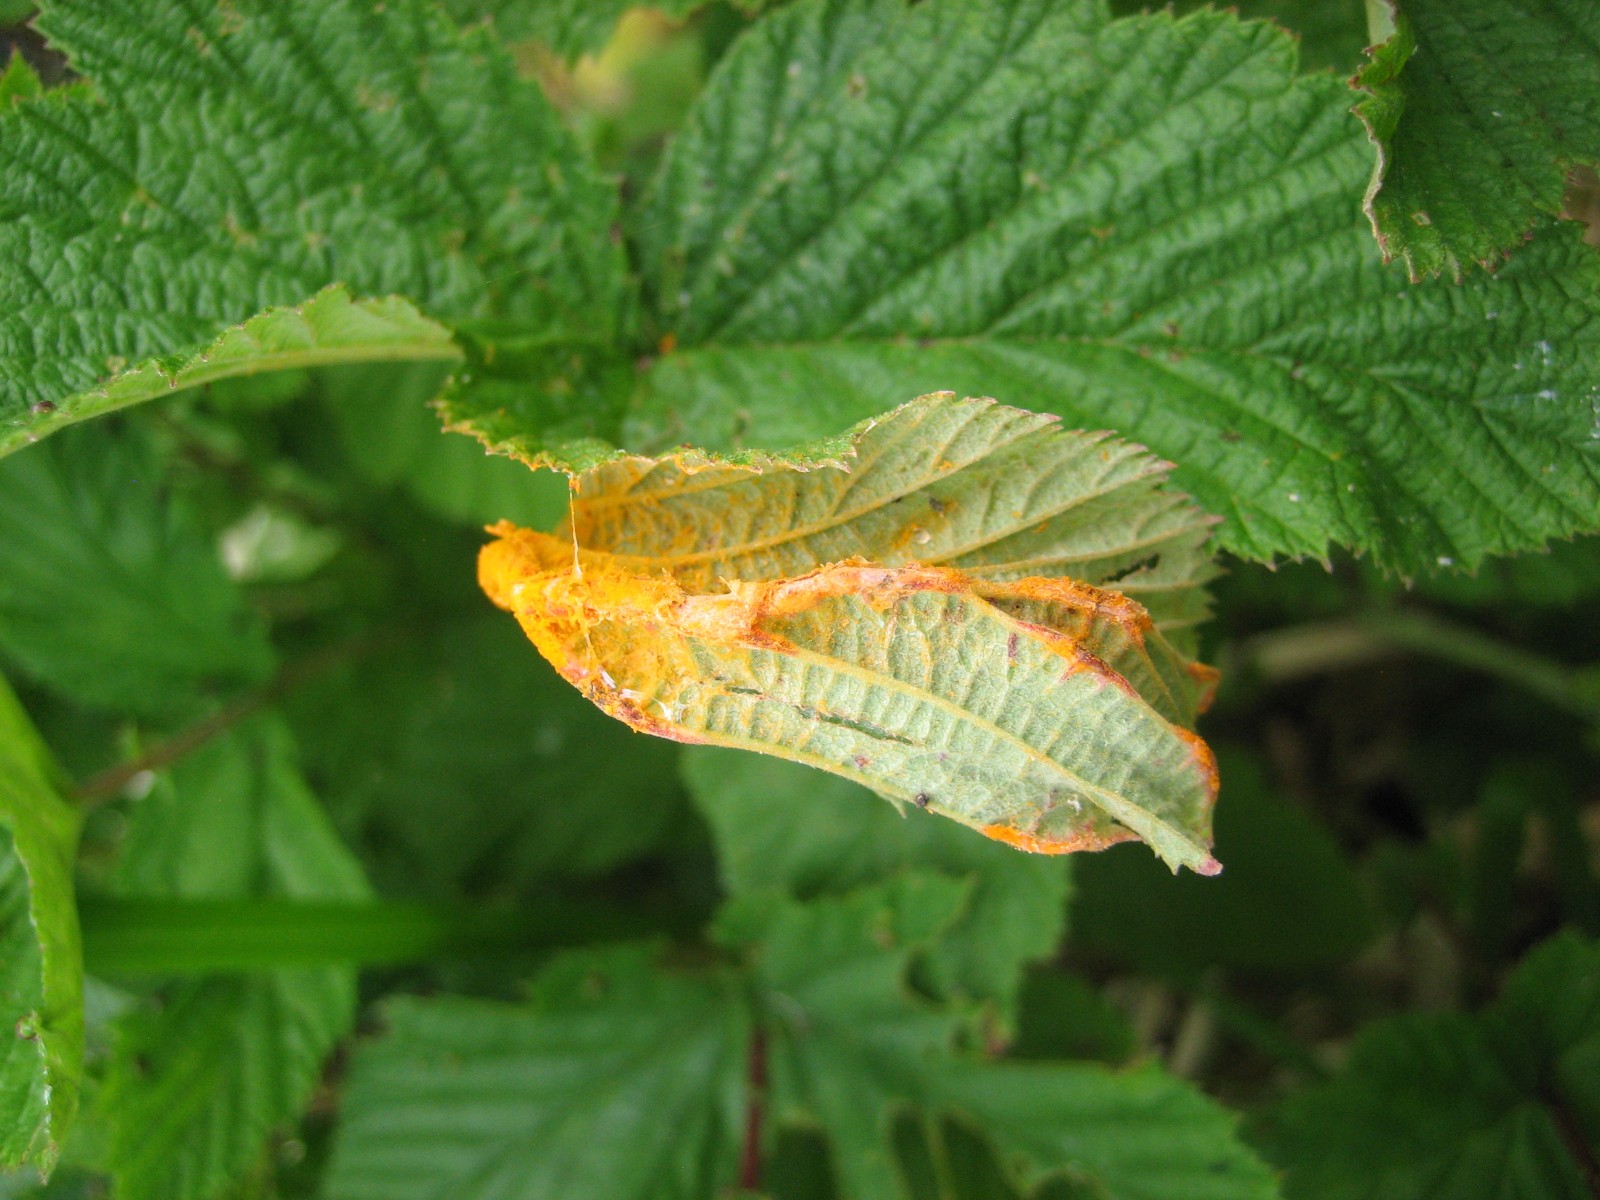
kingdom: Fungi
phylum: Basidiomycota
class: Pucciniomycetes
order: Pucciniales
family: Raveneliaceae
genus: Triphragmium
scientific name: Triphragmium ulmariae
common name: almindelig mjødurtrust
